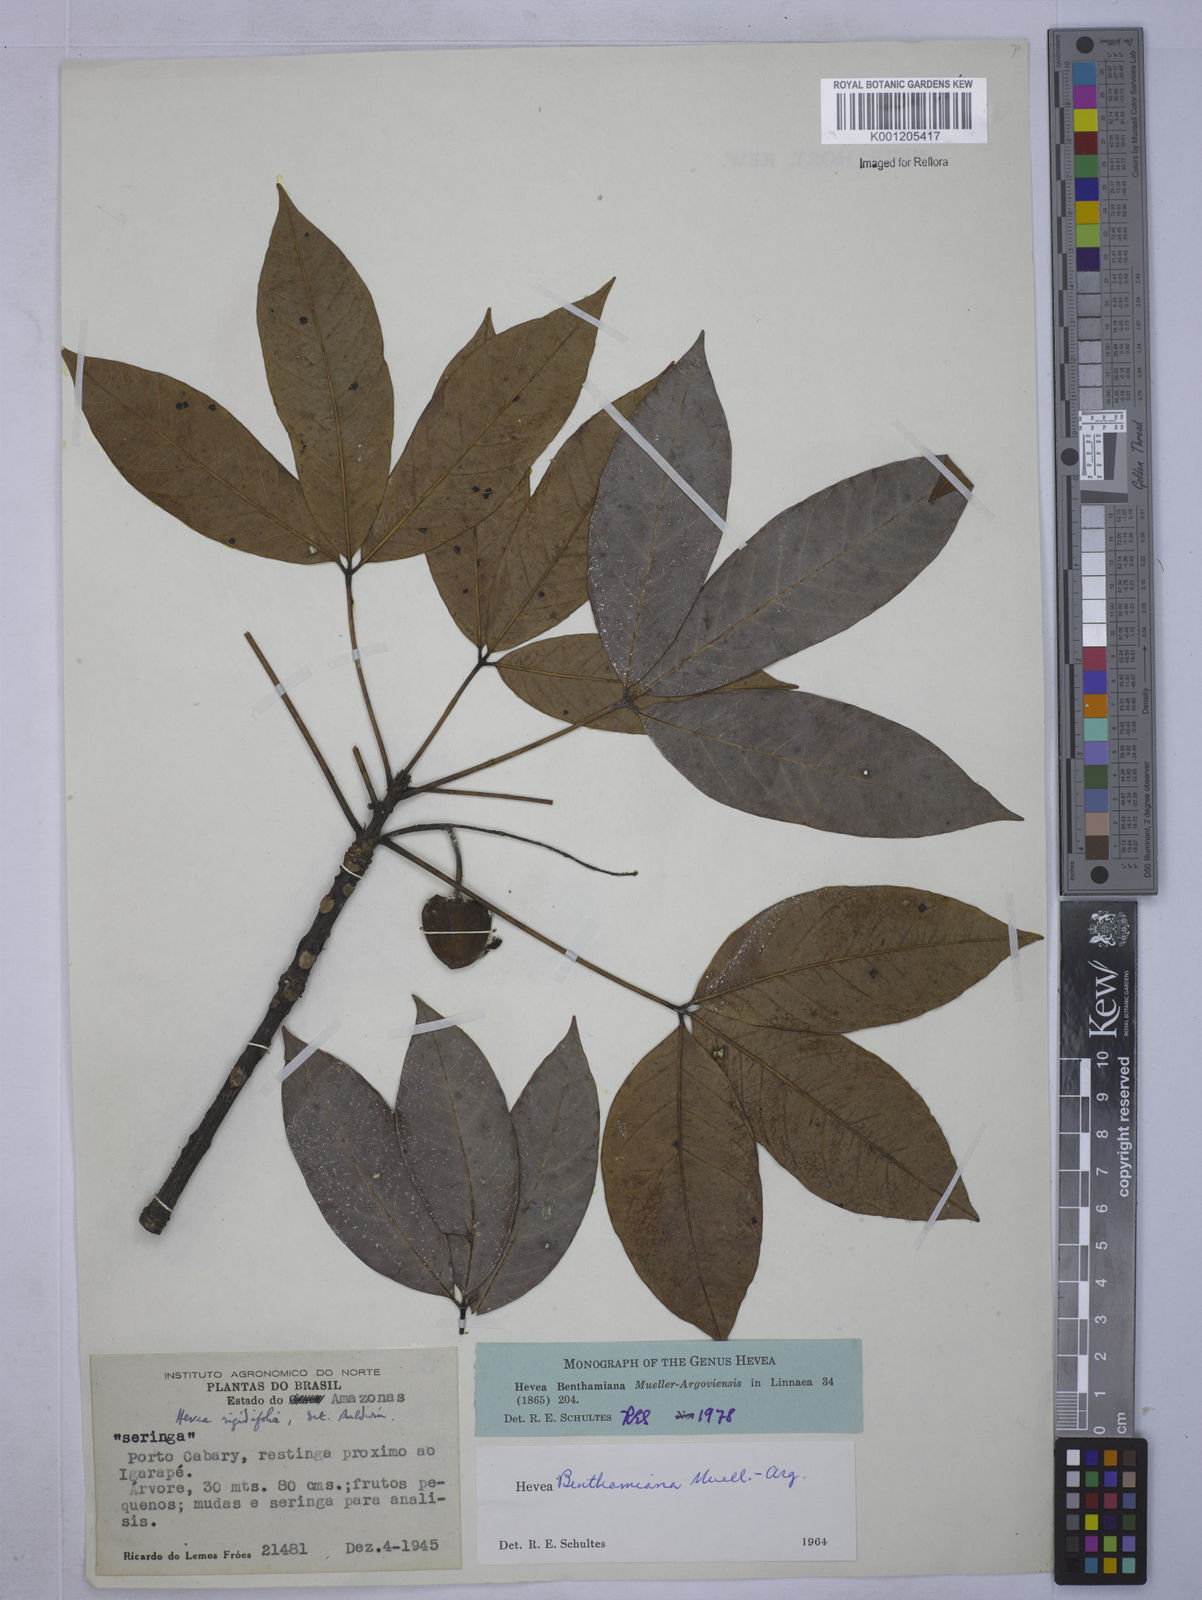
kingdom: Plantae
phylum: Tracheophyta
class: Magnoliopsida
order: Malpighiales
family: Euphorbiaceae
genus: Hevea
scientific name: Hevea
